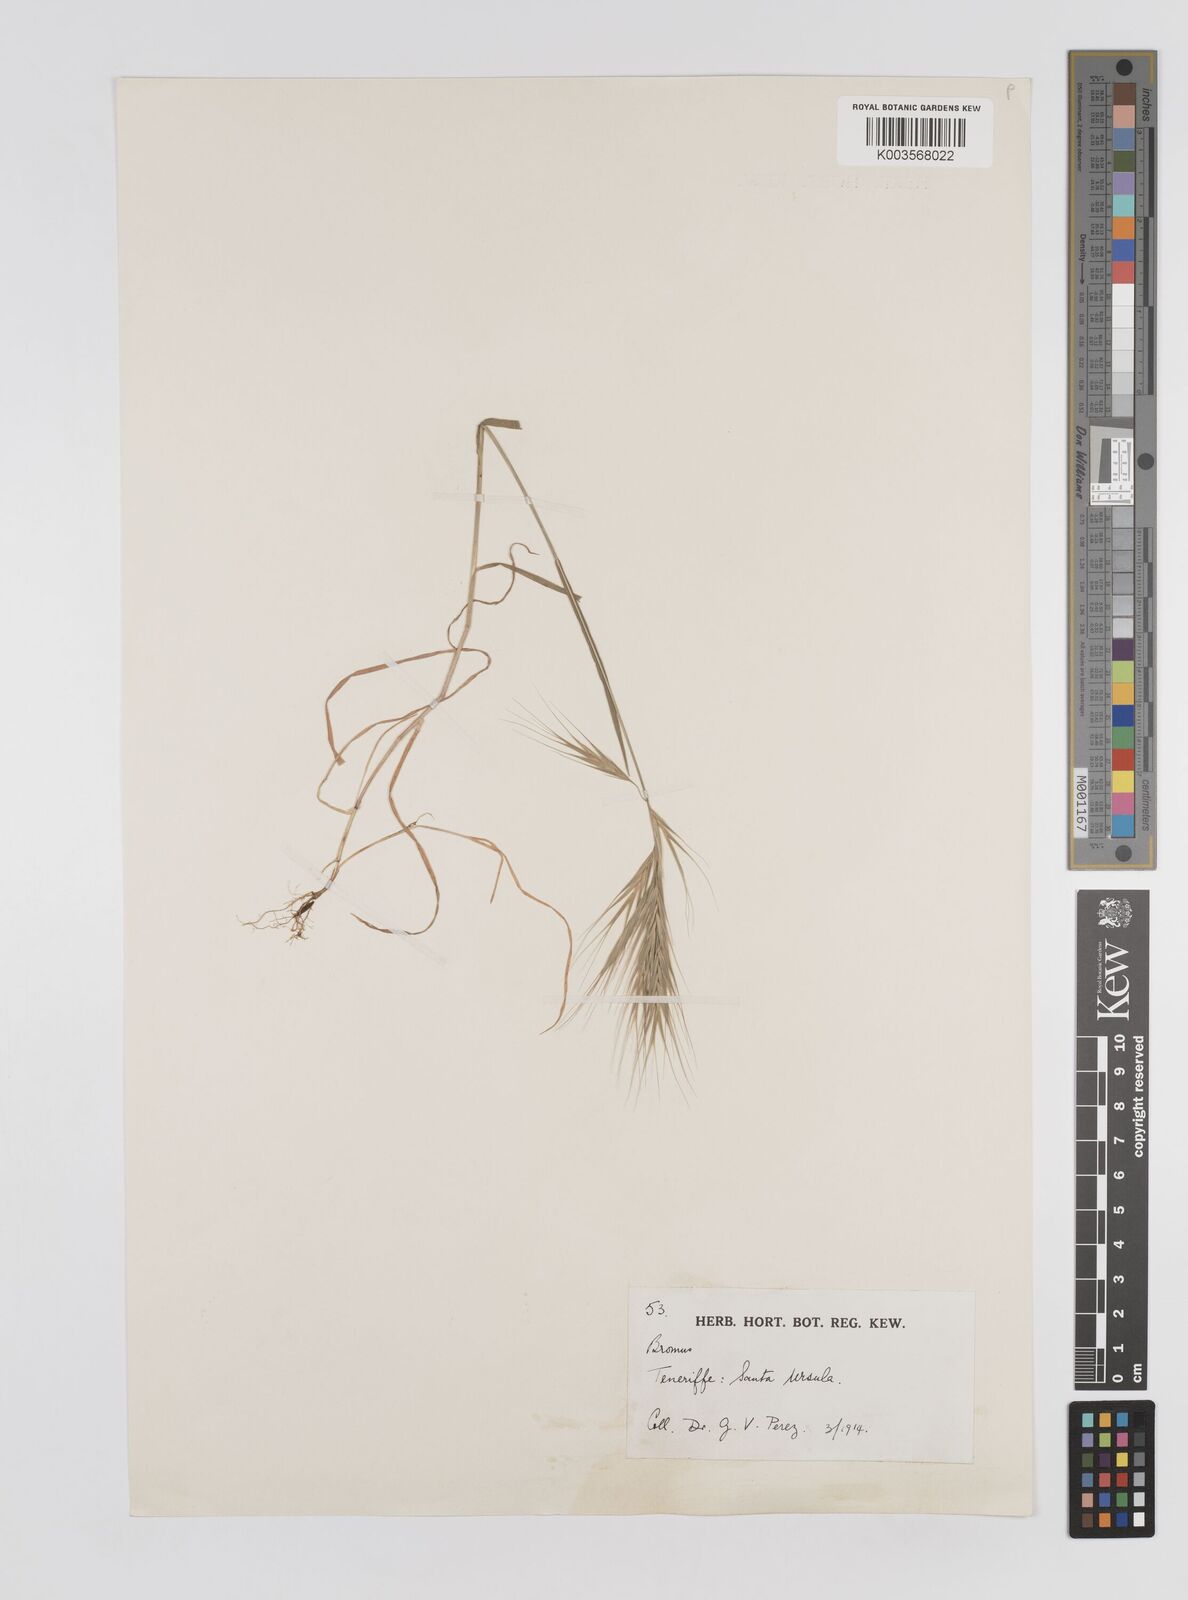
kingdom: Plantae
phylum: Tracheophyta
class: Liliopsida
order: Poales
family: Poaceae
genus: Bromus
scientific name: Bromus
